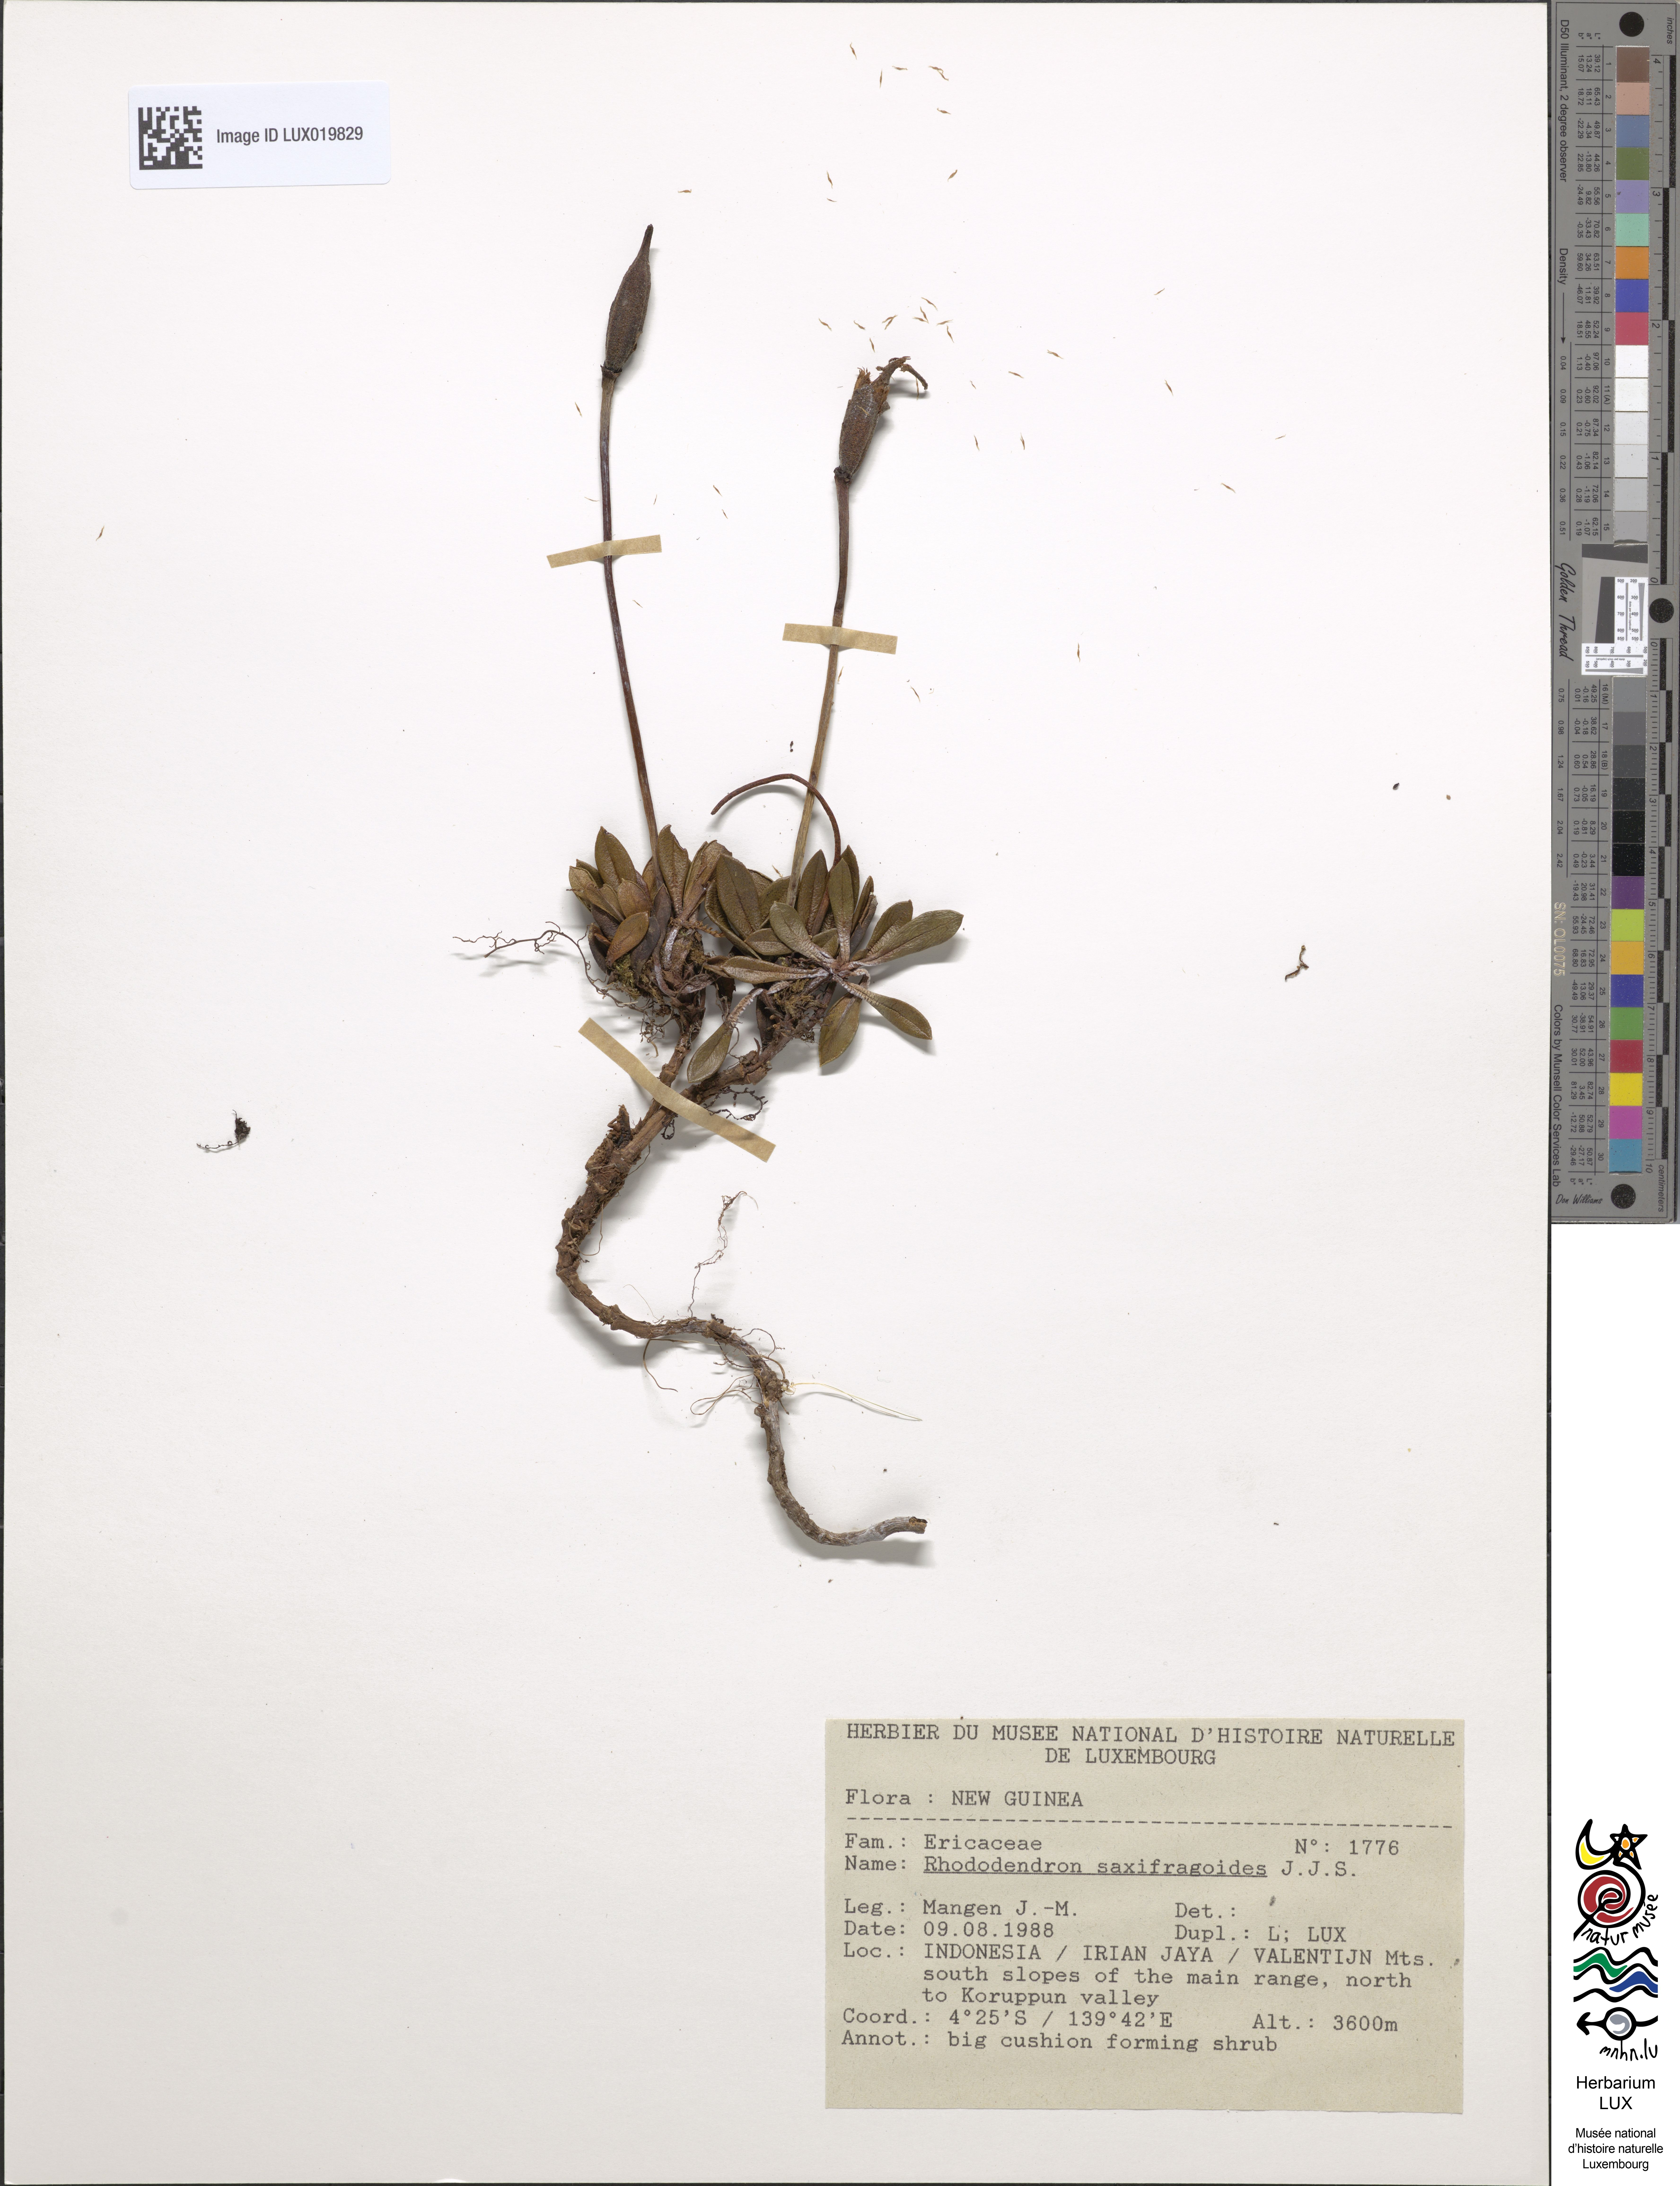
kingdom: Plantae
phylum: Tracheophyta
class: Magnoliopsida
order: Ericales
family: Ericaceae
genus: Rhododendron
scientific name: Rhododendron saxifragoides
